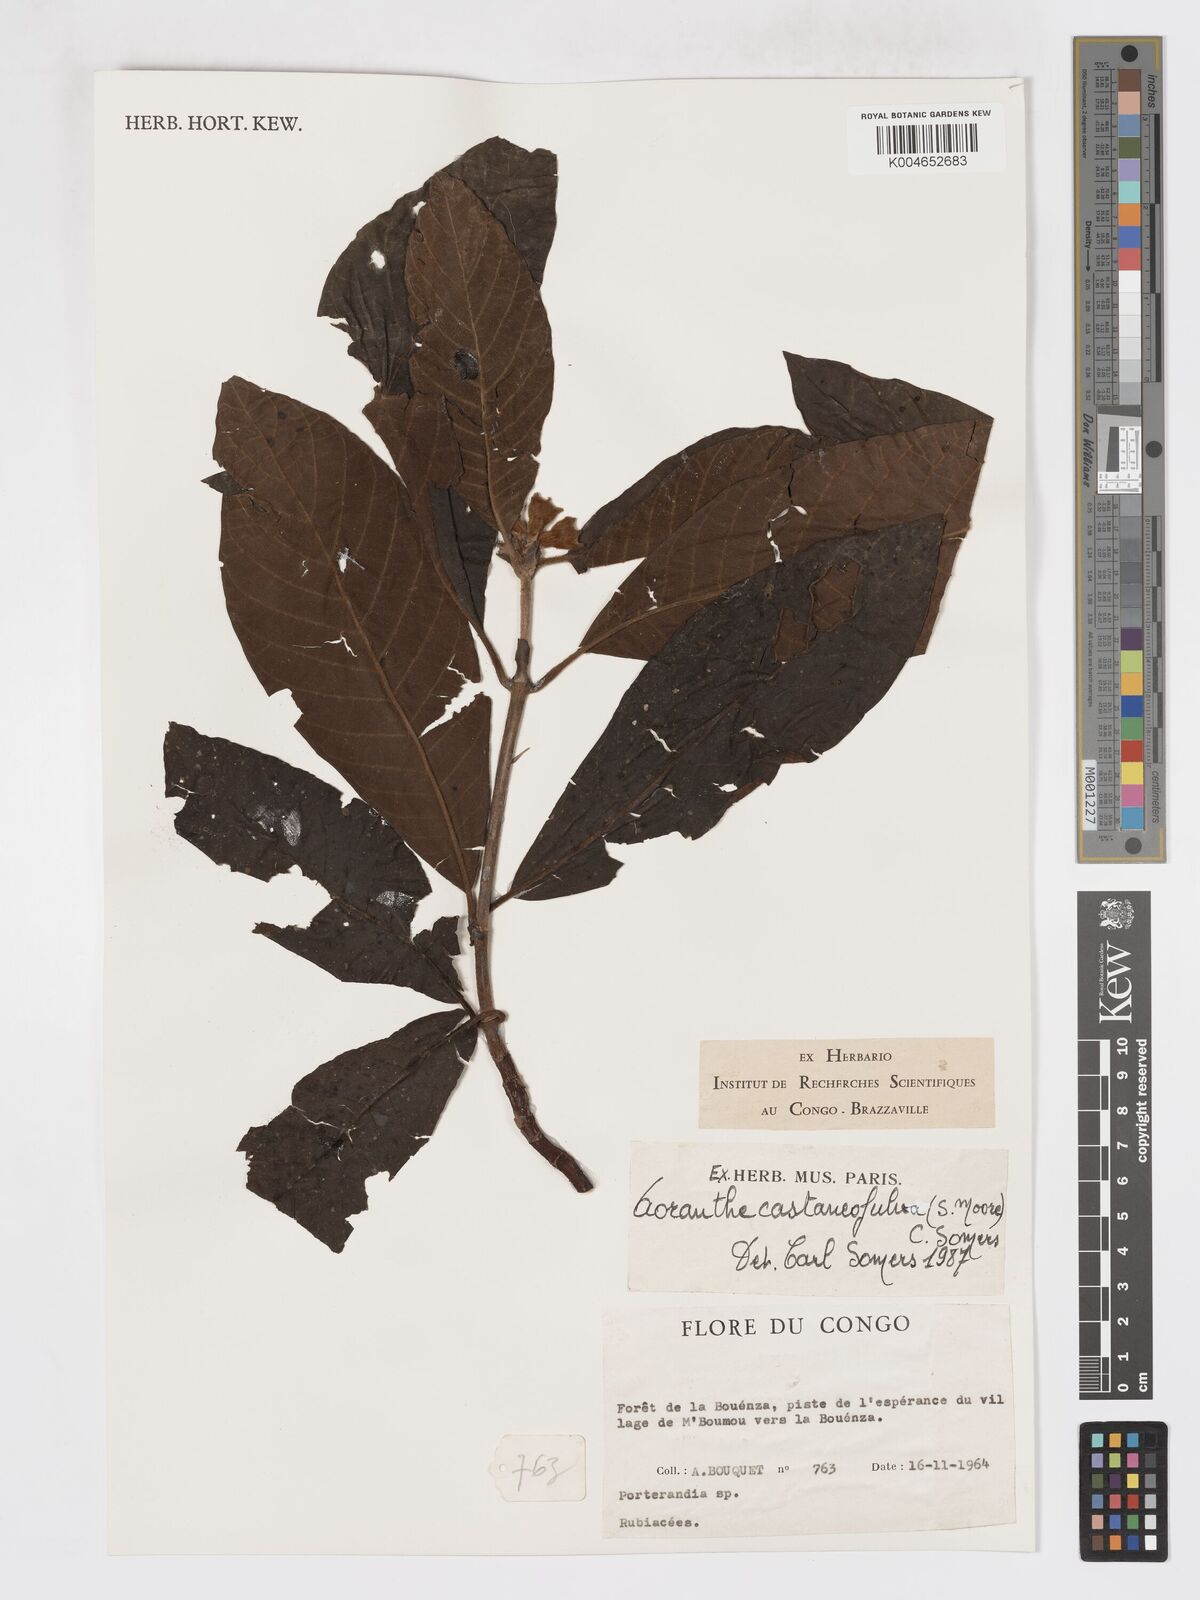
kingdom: Plantae
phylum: Tracheophyta
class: Magnoliopsida
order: Gentianales
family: Rubiaceae
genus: Aoranthe
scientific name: Aoranthe castaneofulva
